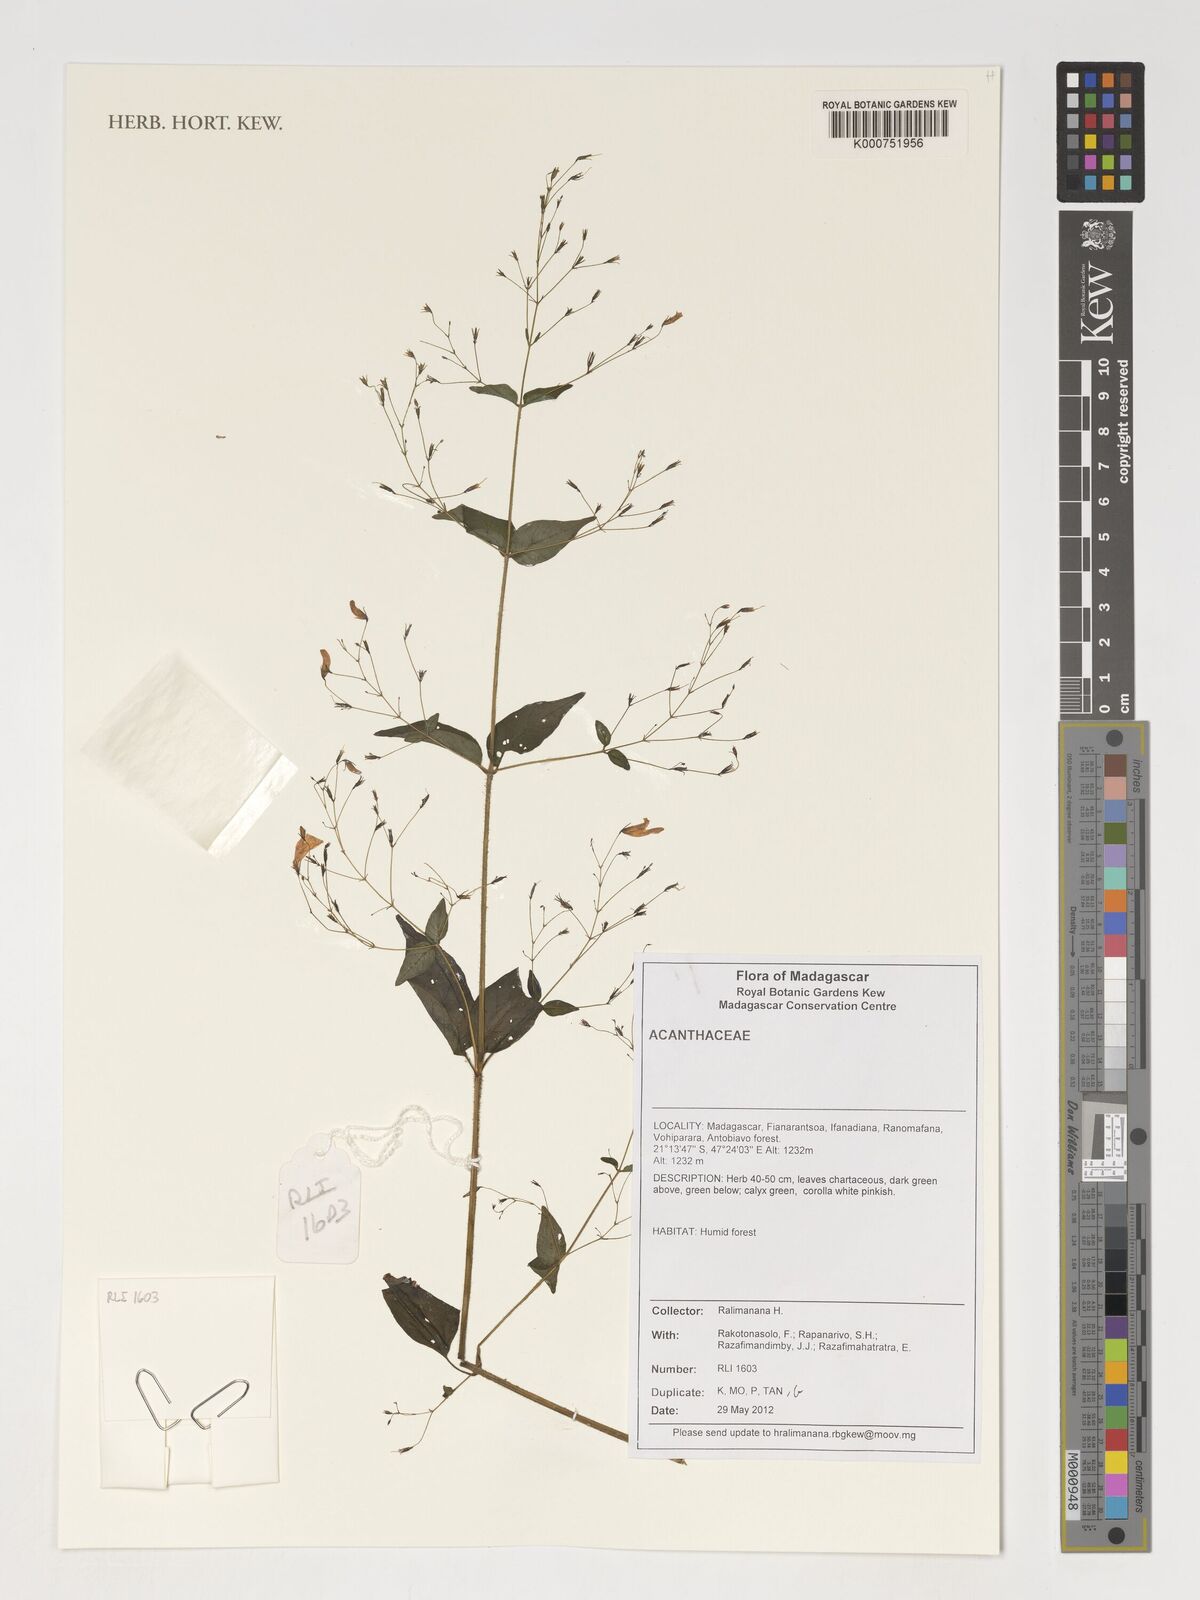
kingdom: Plantae
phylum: Tracheophyta
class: Magnoliopsida
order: Lamiales
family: Acanthaceae
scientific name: Acanthaceae
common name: Acanthaceae
